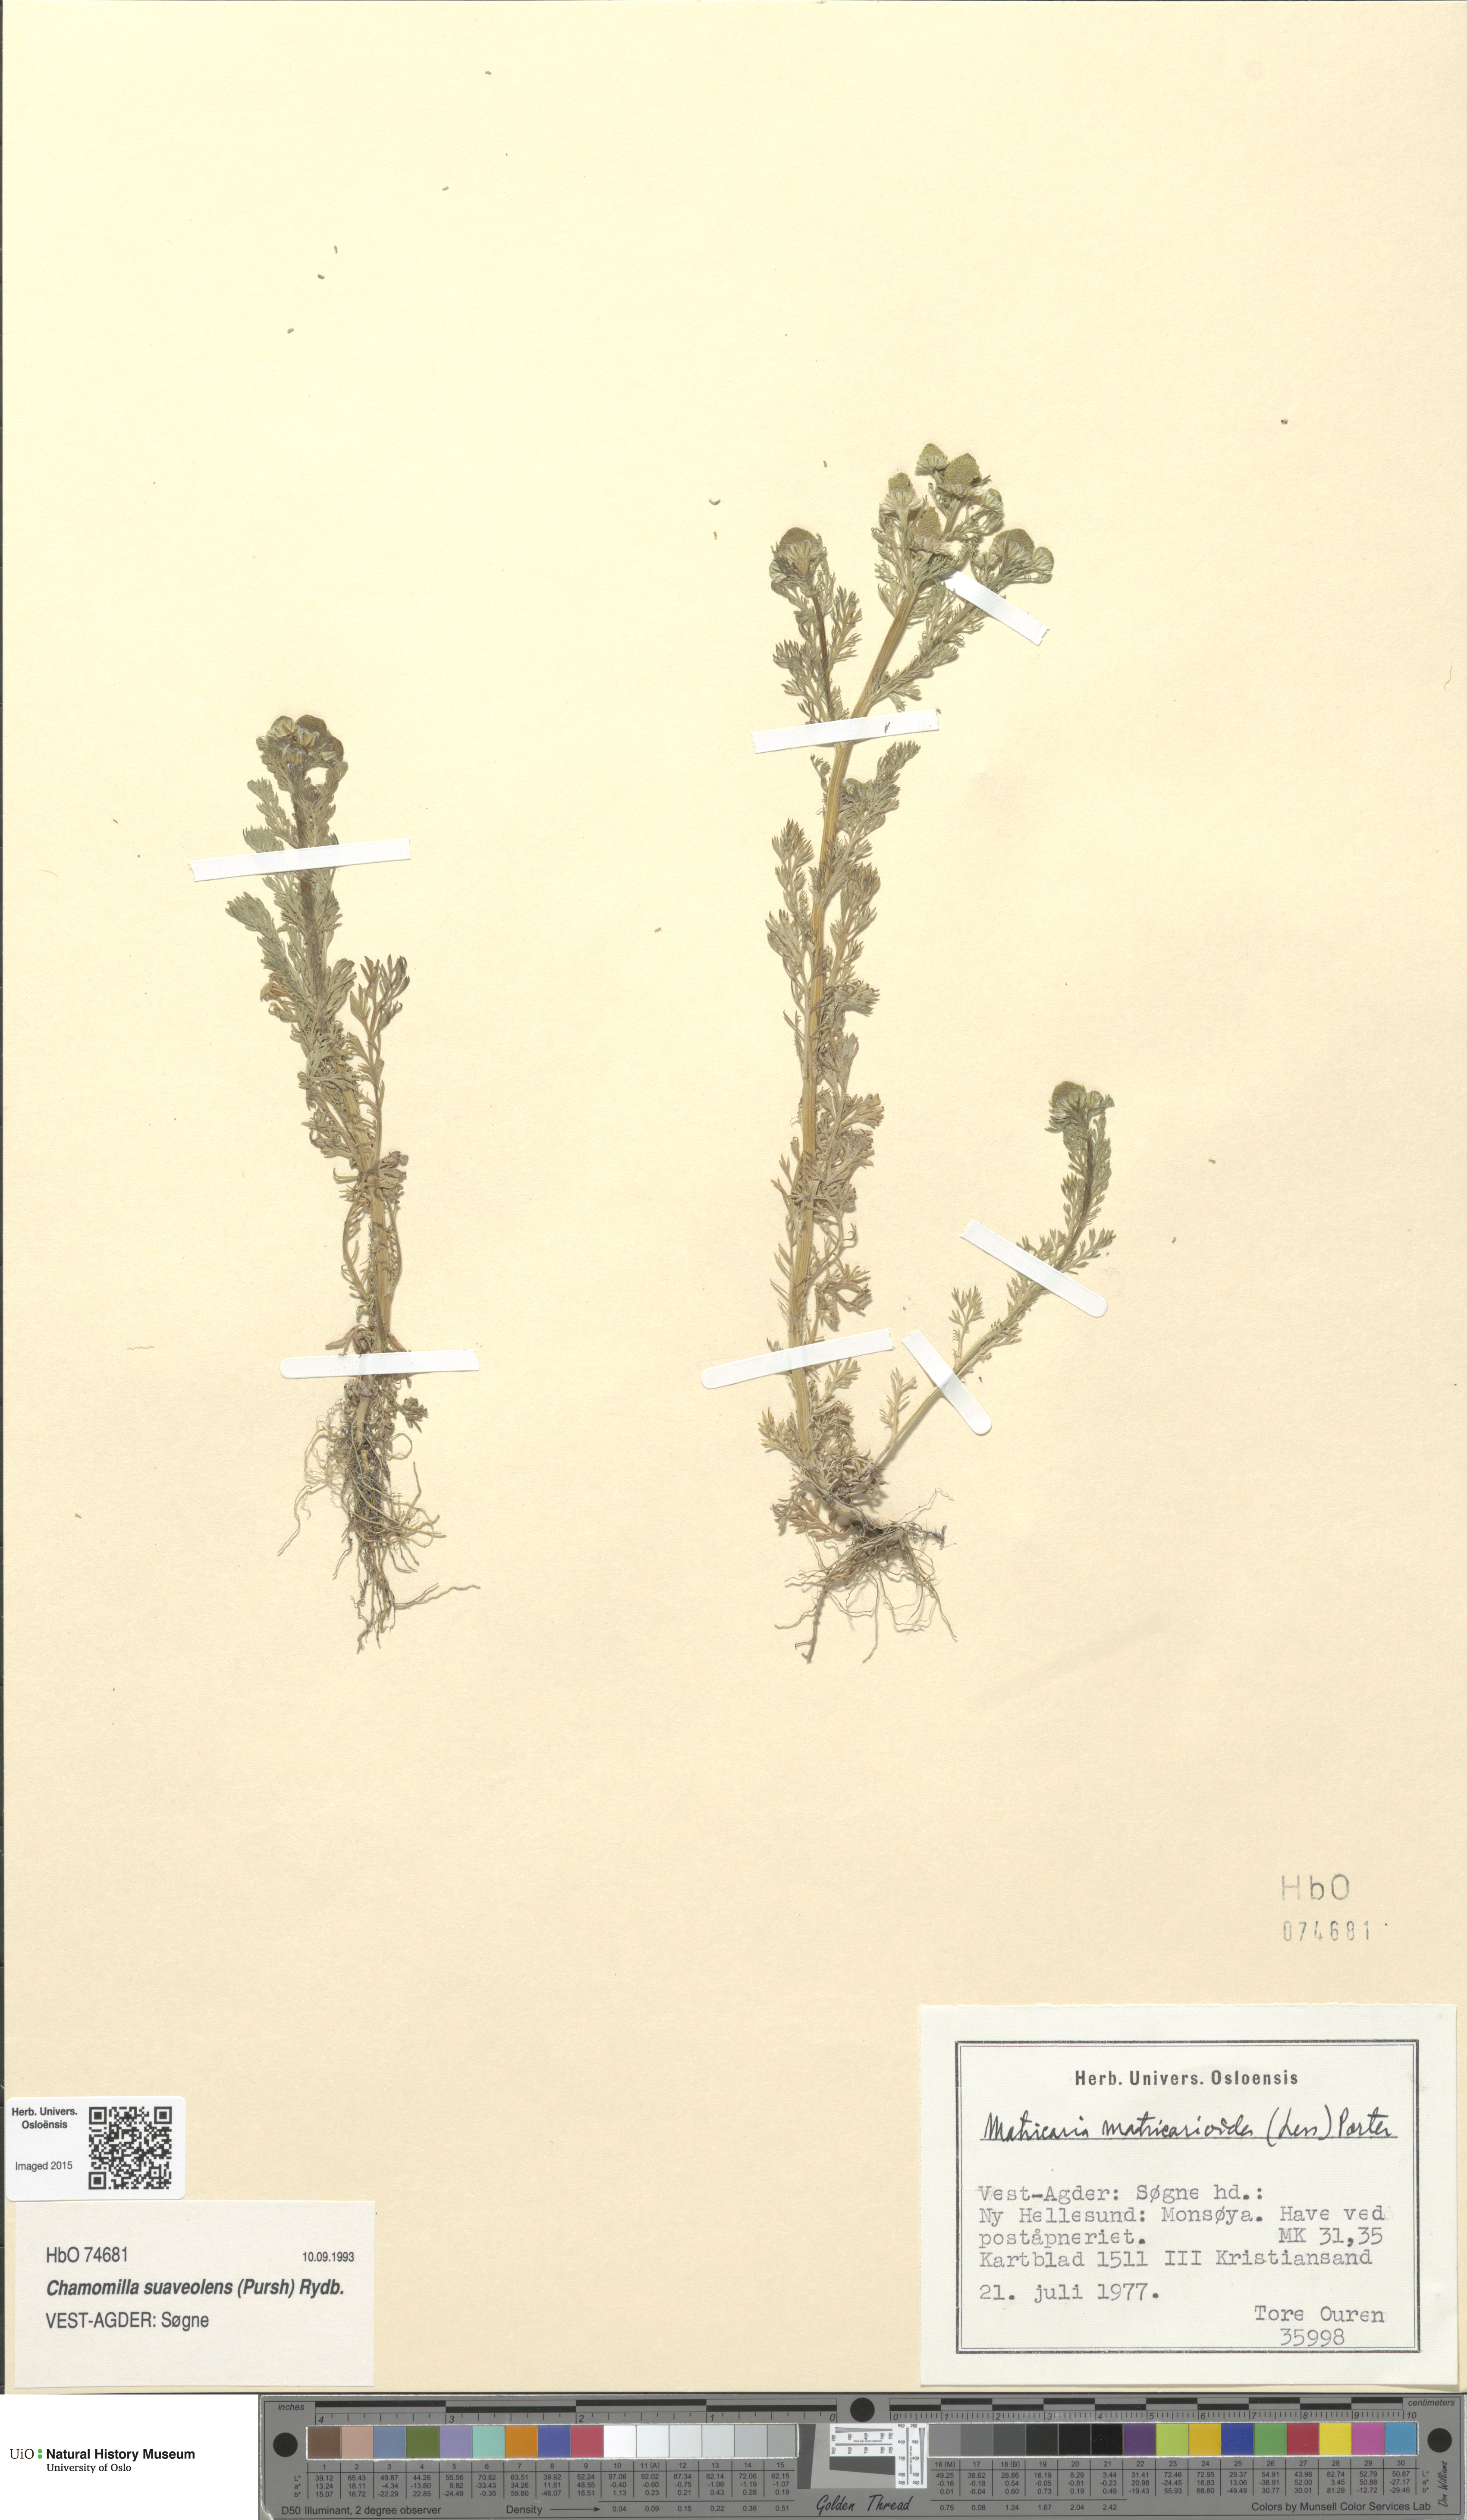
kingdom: Plantae
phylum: Tracheophyta
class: Magnoliopsida
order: Asterales
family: Asteraceae
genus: Matricaria
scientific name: Matricaria discoidea
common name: Disc mayweed
